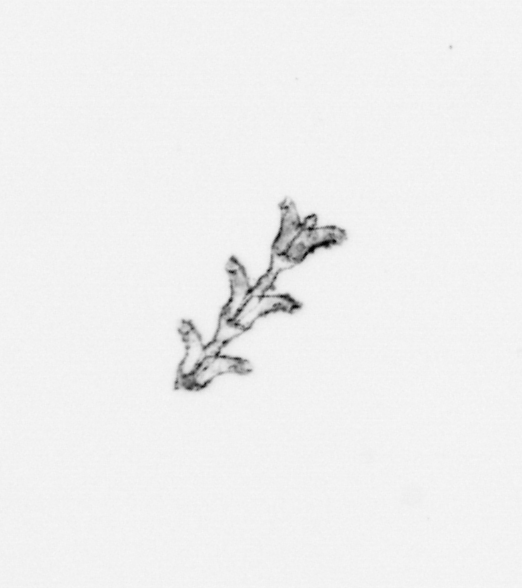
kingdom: Animalia
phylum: Cnidaria
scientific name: Cnidaria
